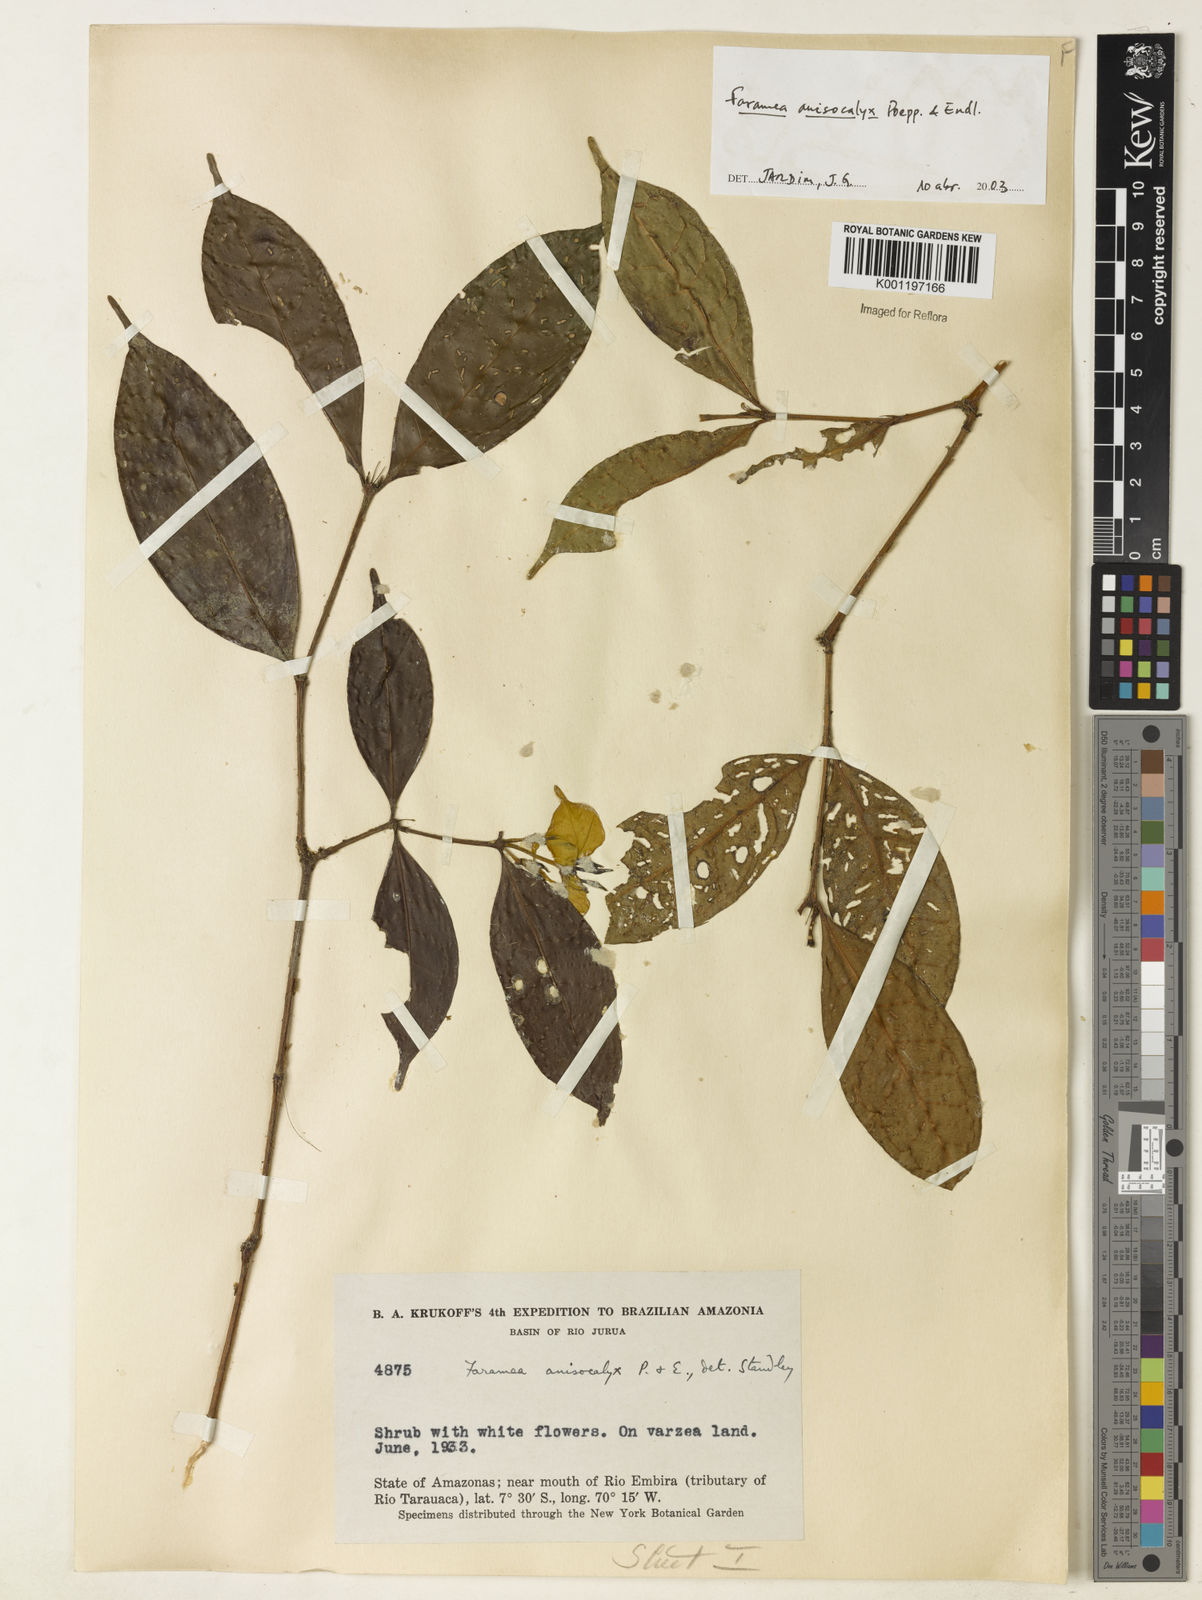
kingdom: Plantae
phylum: Tracheophyta
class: Magnoliopsida
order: Gentianales
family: Rubiaceae
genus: Faramea
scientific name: Faramea anisocalyx
